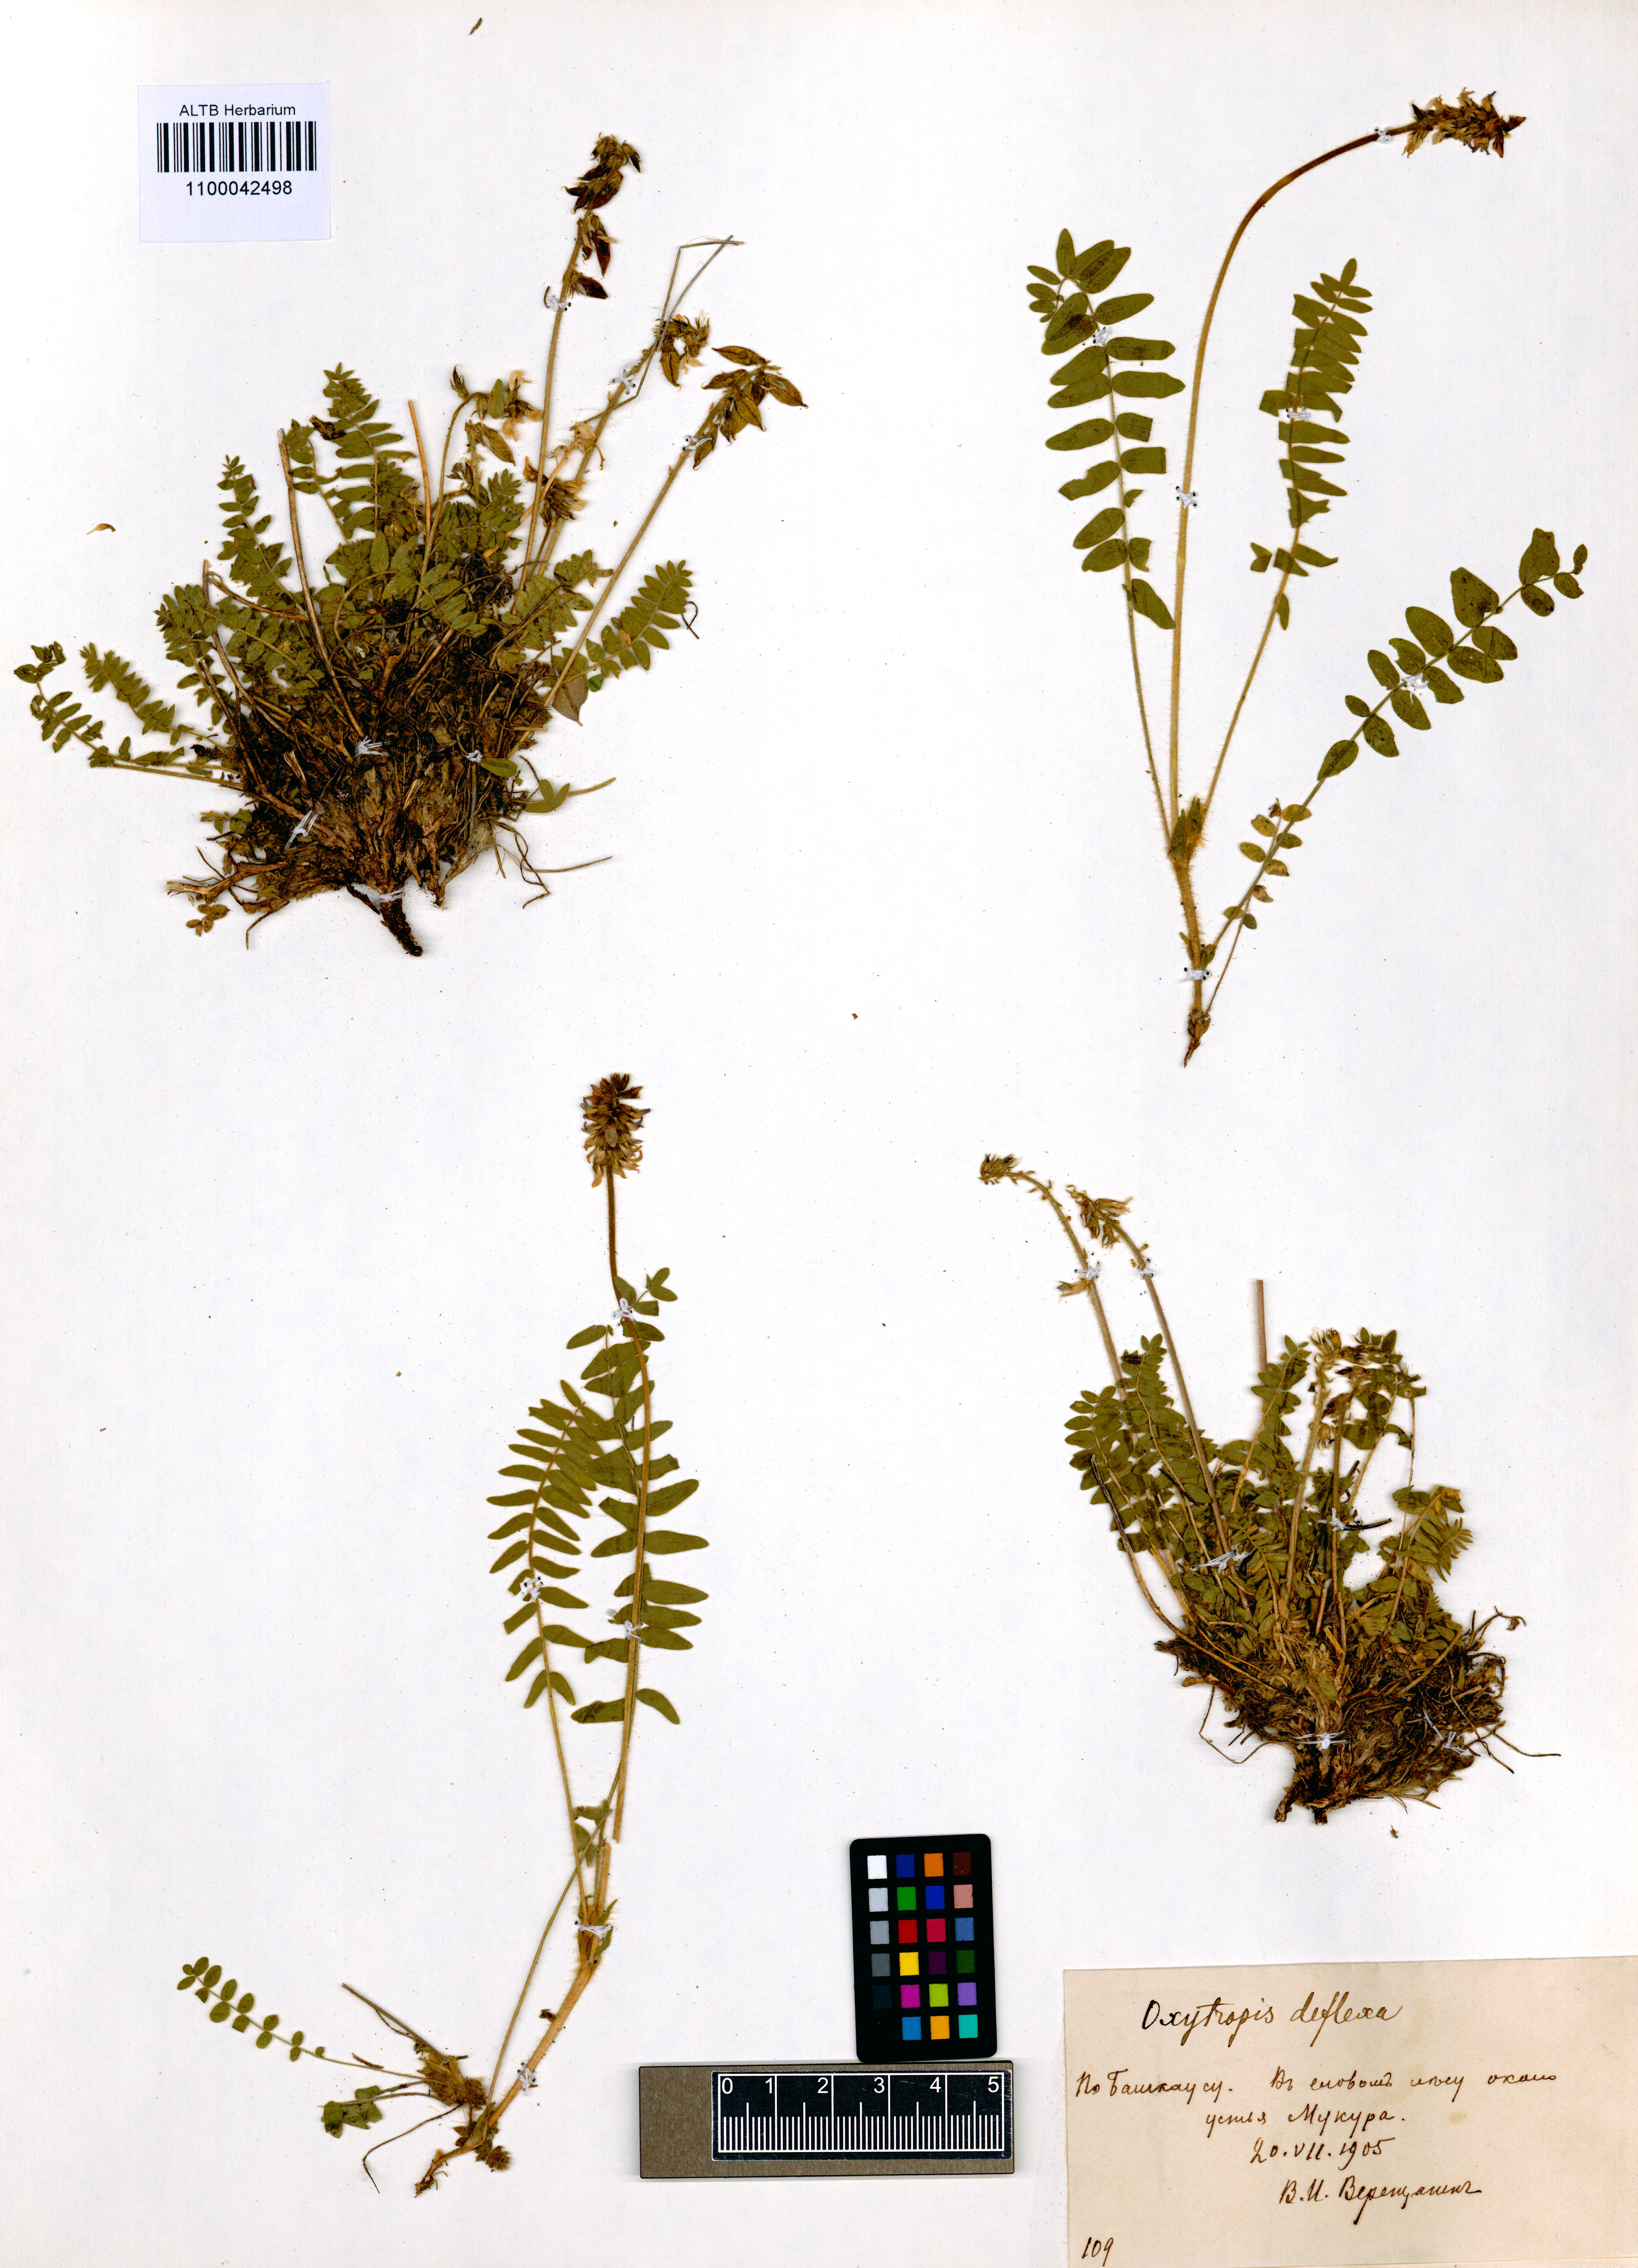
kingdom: Plantae
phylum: Tracheophyta
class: Magnoliopsida
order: Fabales
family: Fabaceae
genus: Oxytropis
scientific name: Oxytropis deflexa
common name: Stemmed oxytrope
